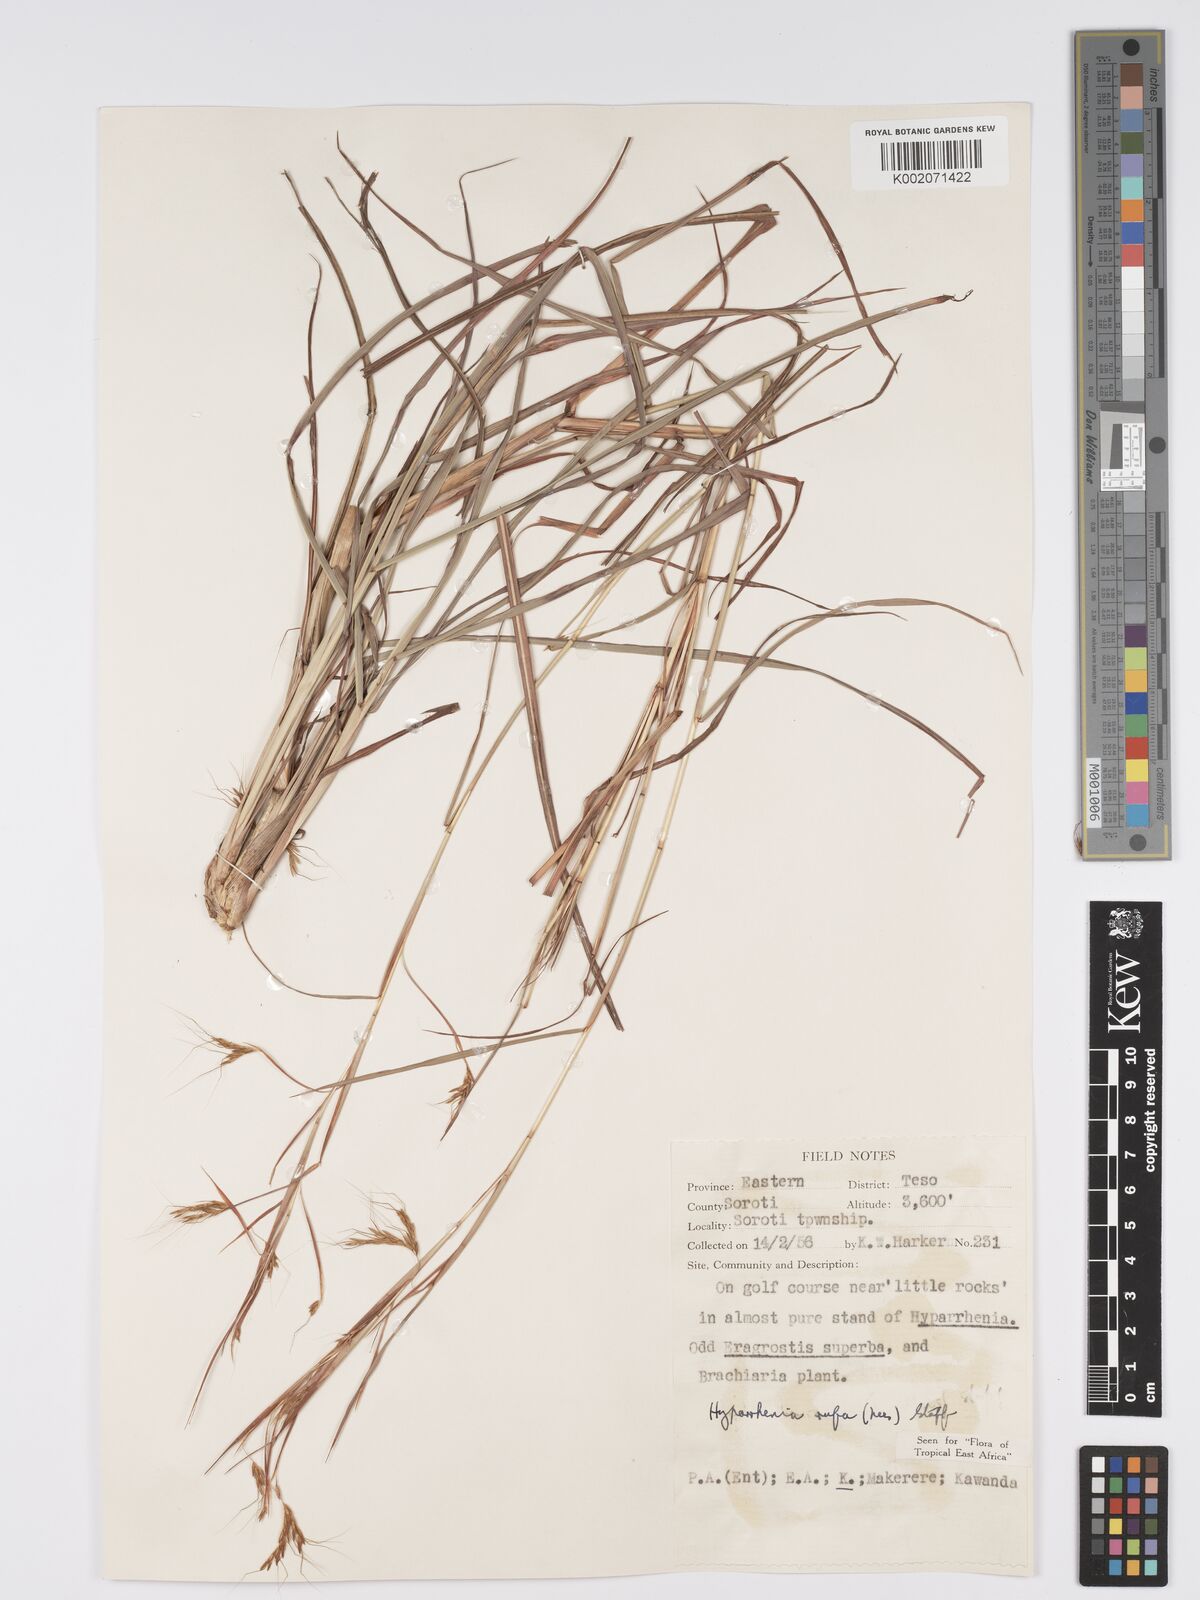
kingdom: Plantae
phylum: Tracheophyta
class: Liliopsida
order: Poales
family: Poaceae
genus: Hyparrhenia
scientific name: Hyparrhenia rufa
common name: Jaraguagrass
